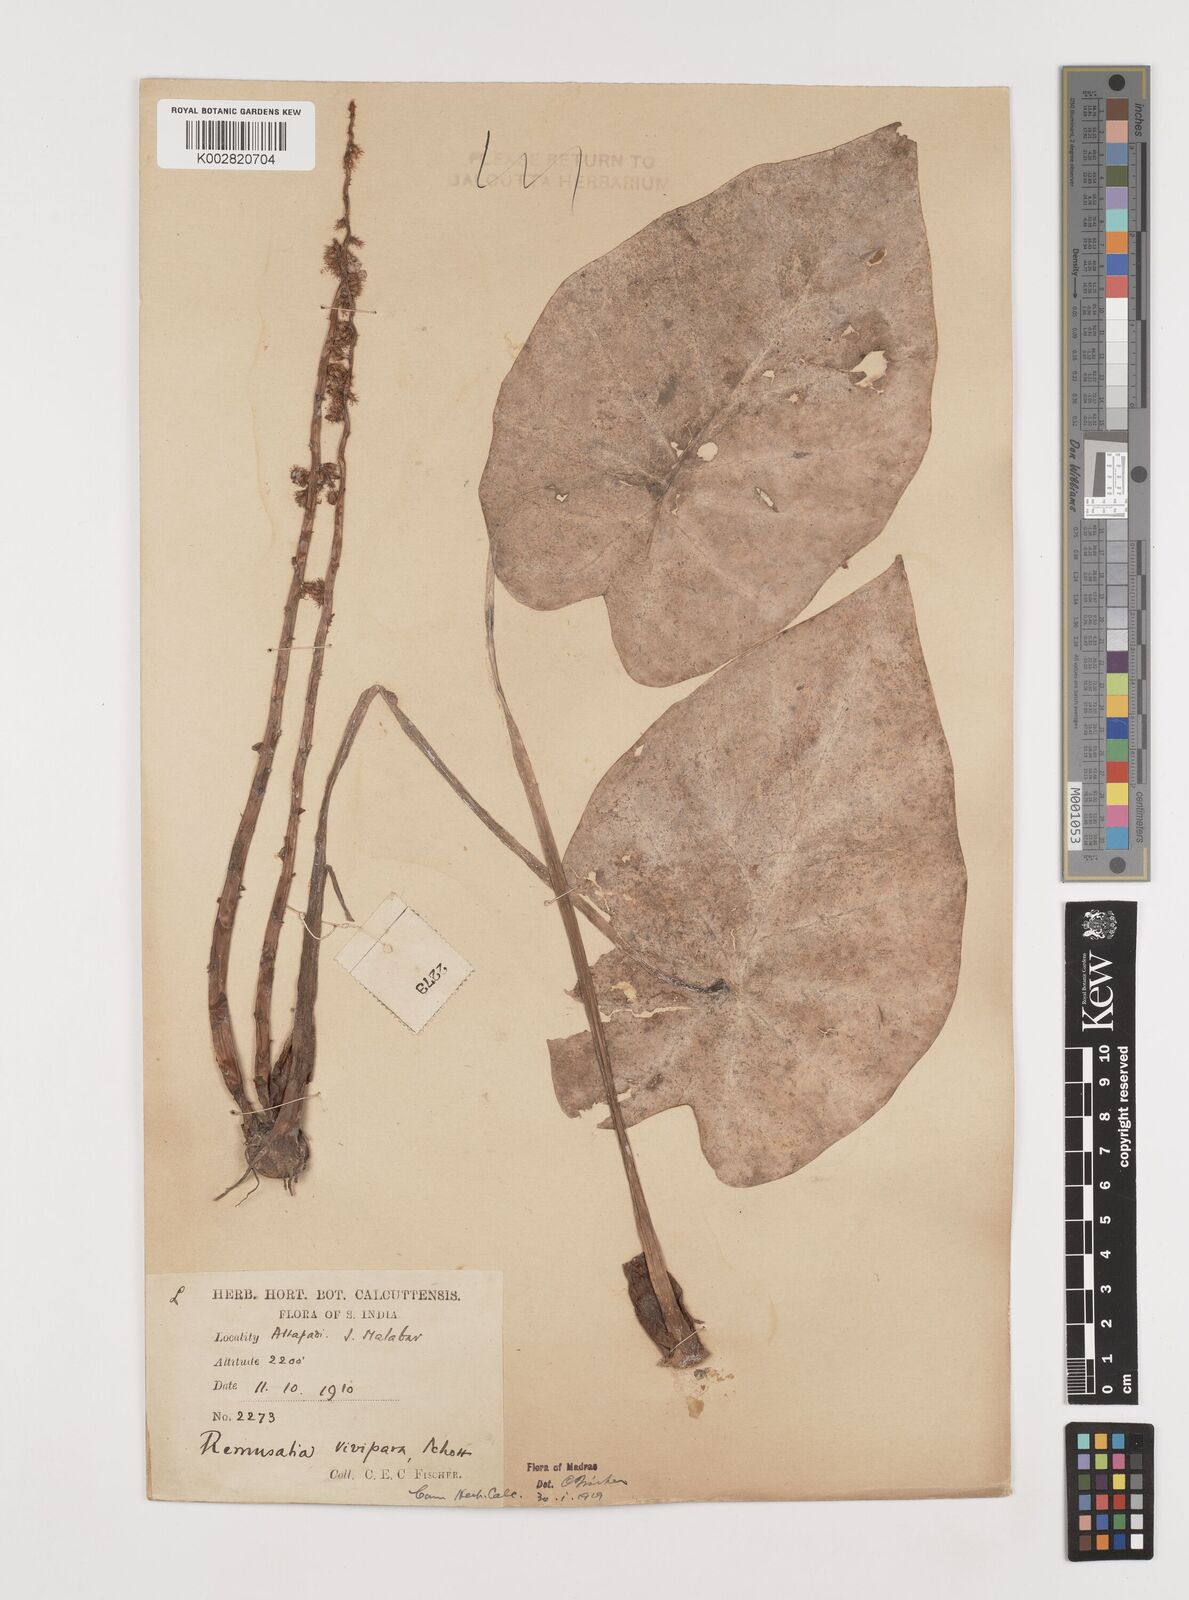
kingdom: Plantae
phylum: Tracheophyta
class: Liliopsida
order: Alismatales
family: Araceae
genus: Remusatia
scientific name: Remusatia vivipara
